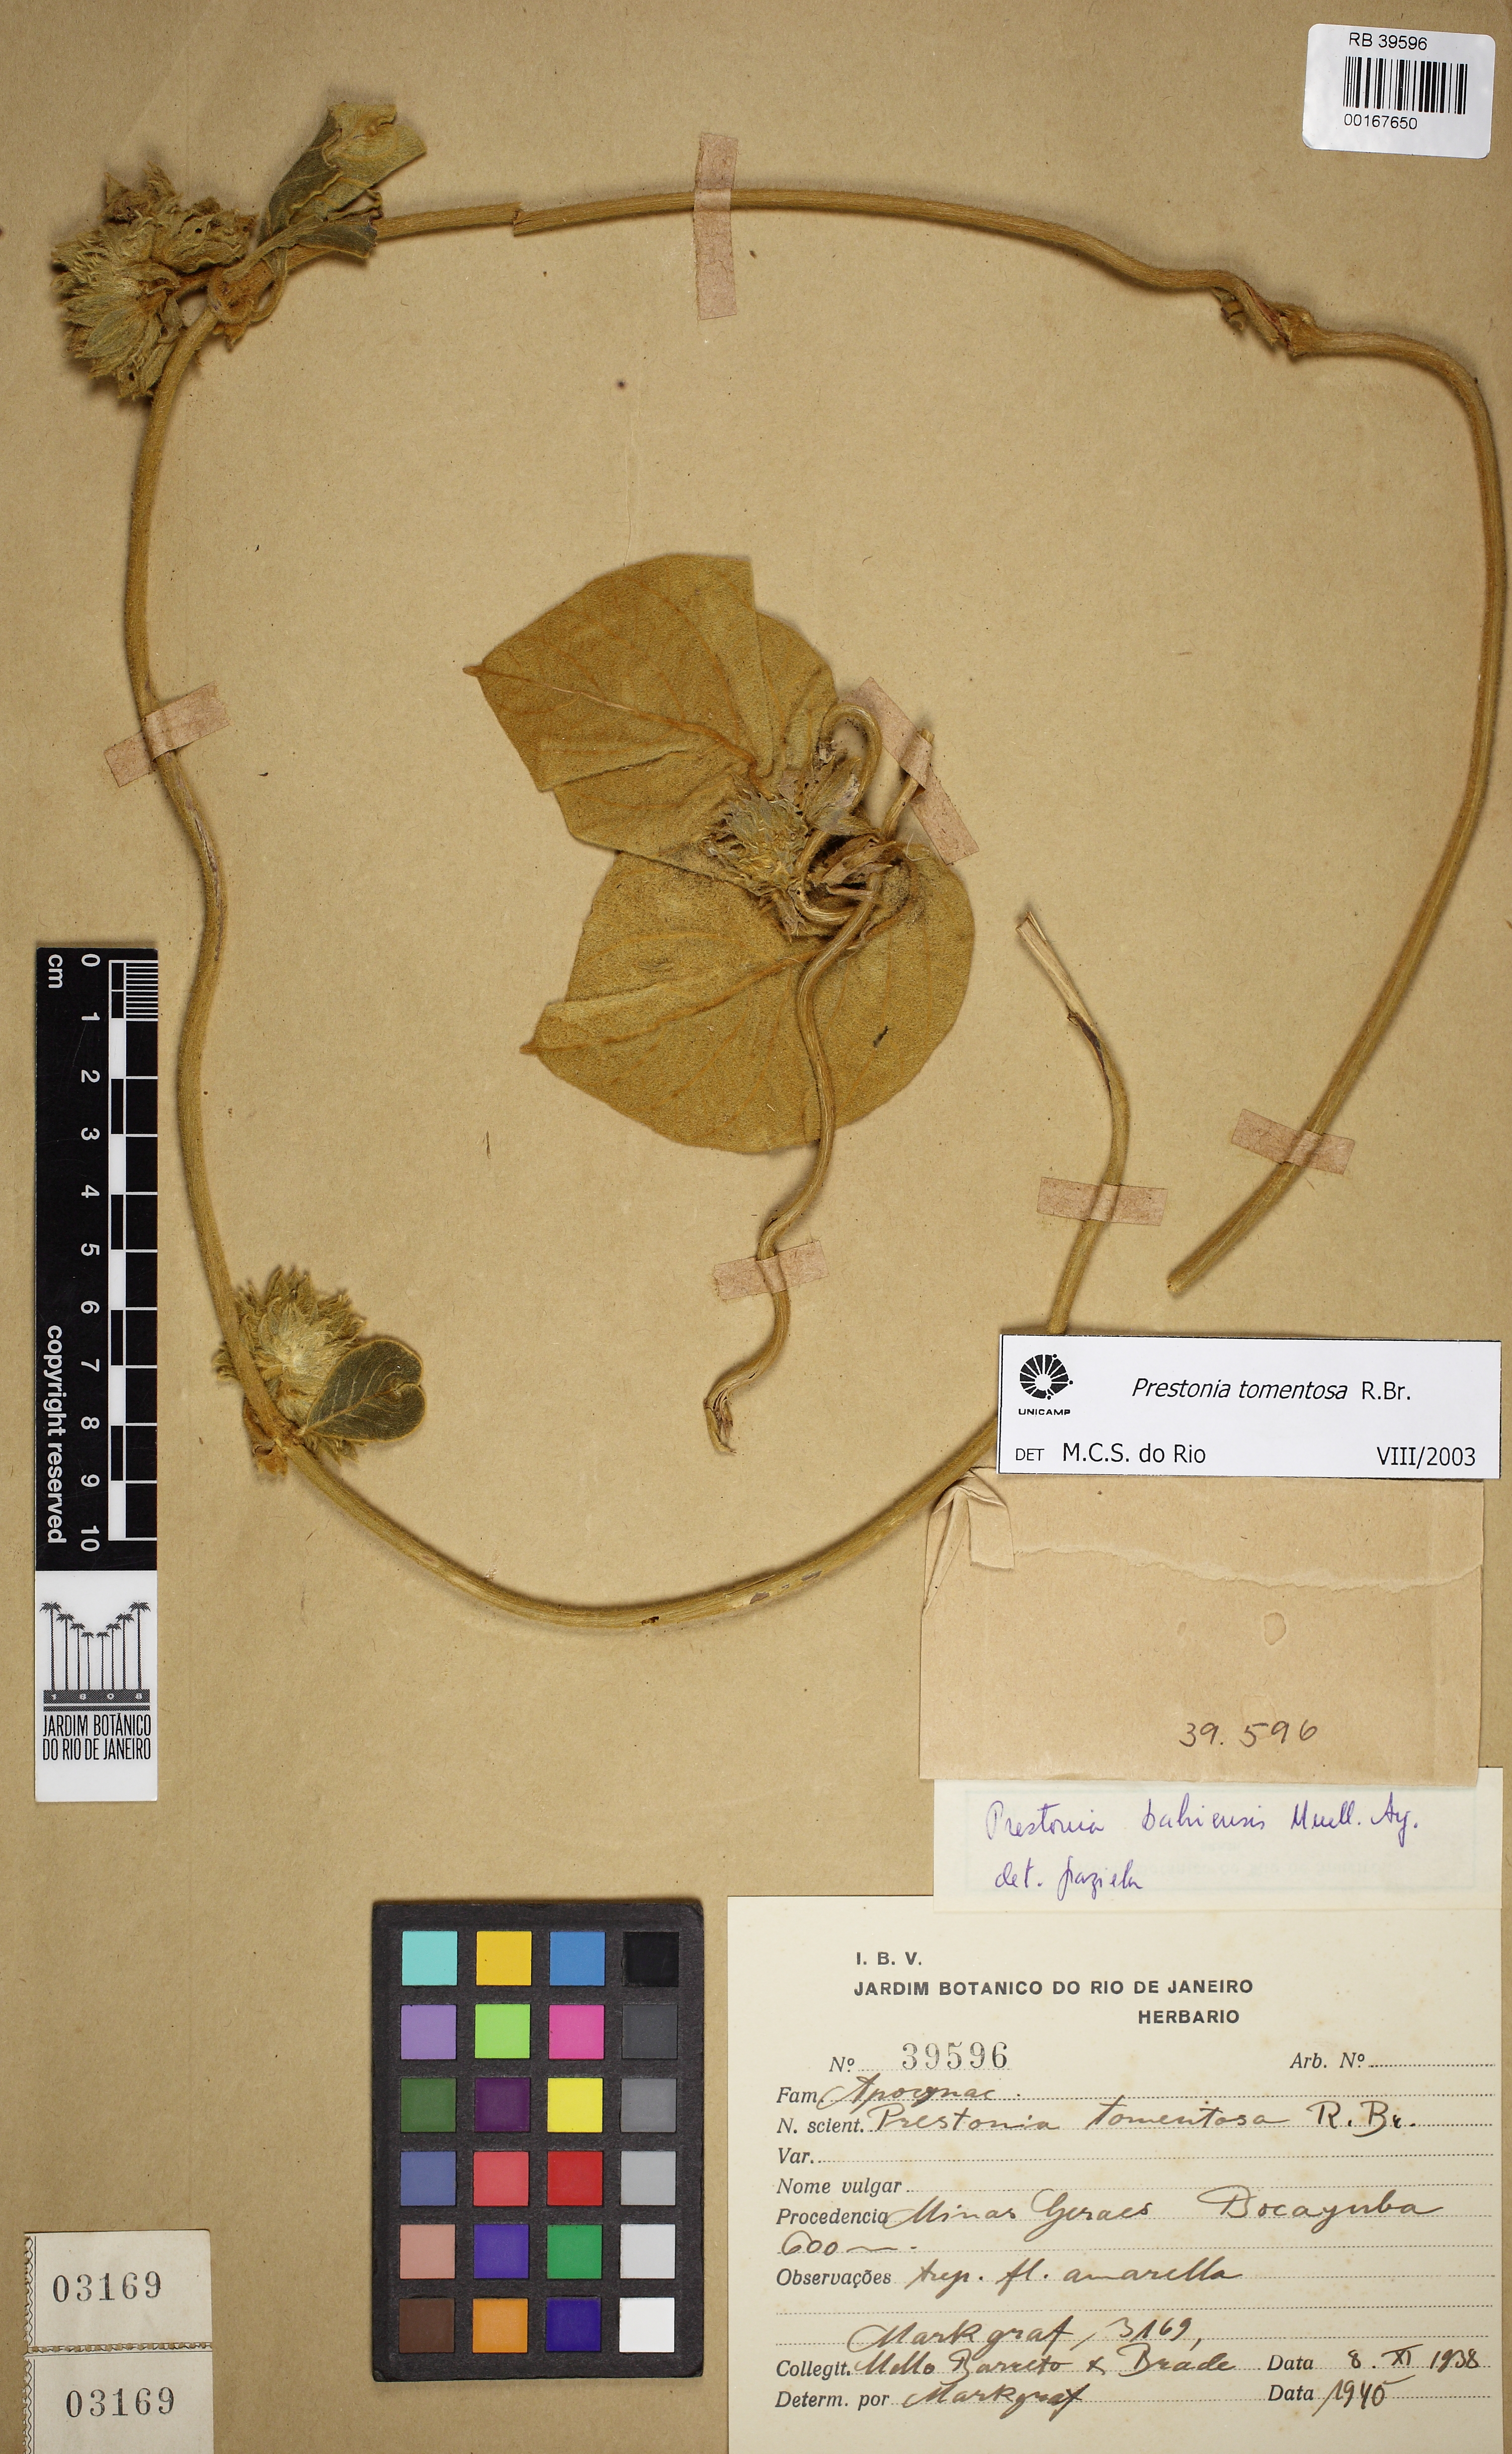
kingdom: Plantae
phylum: Tracheophyta
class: Magnoliopsida
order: Gentianales
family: Apocynaceae
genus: Prestonia
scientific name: Prestonia tomentosa
